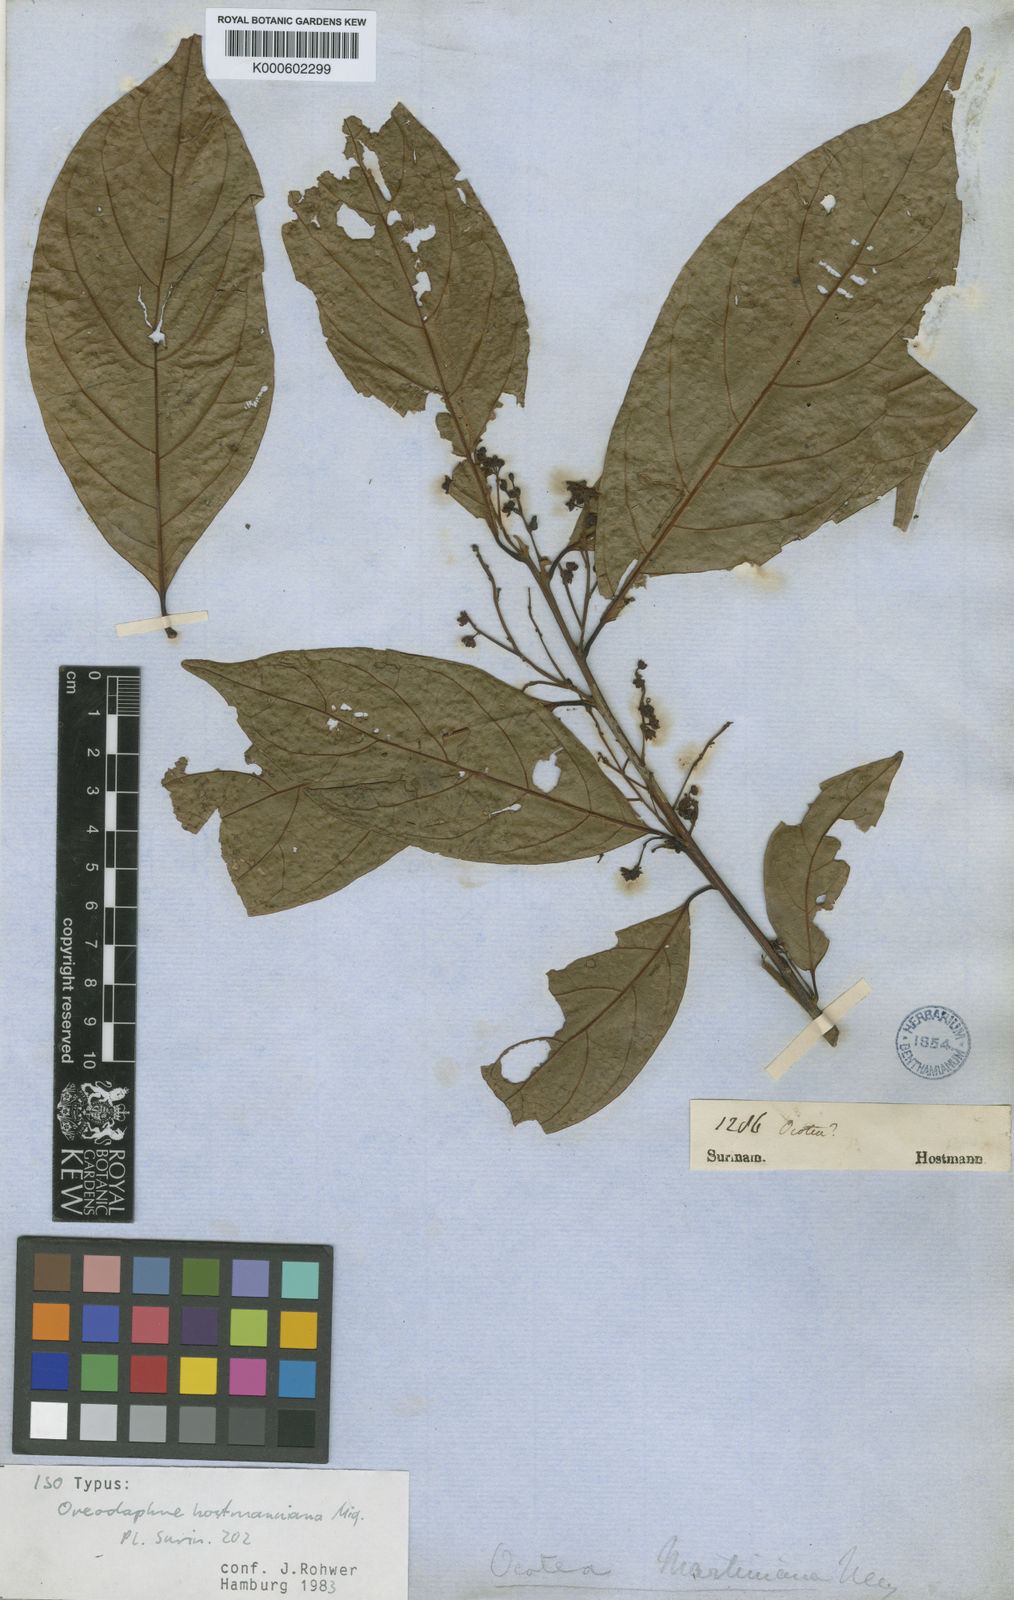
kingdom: Plantae
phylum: Tracheophyta
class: Magnoliopsida
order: Laurales
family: Lauraceae
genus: Ocotea
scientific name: Ocotea puberula
